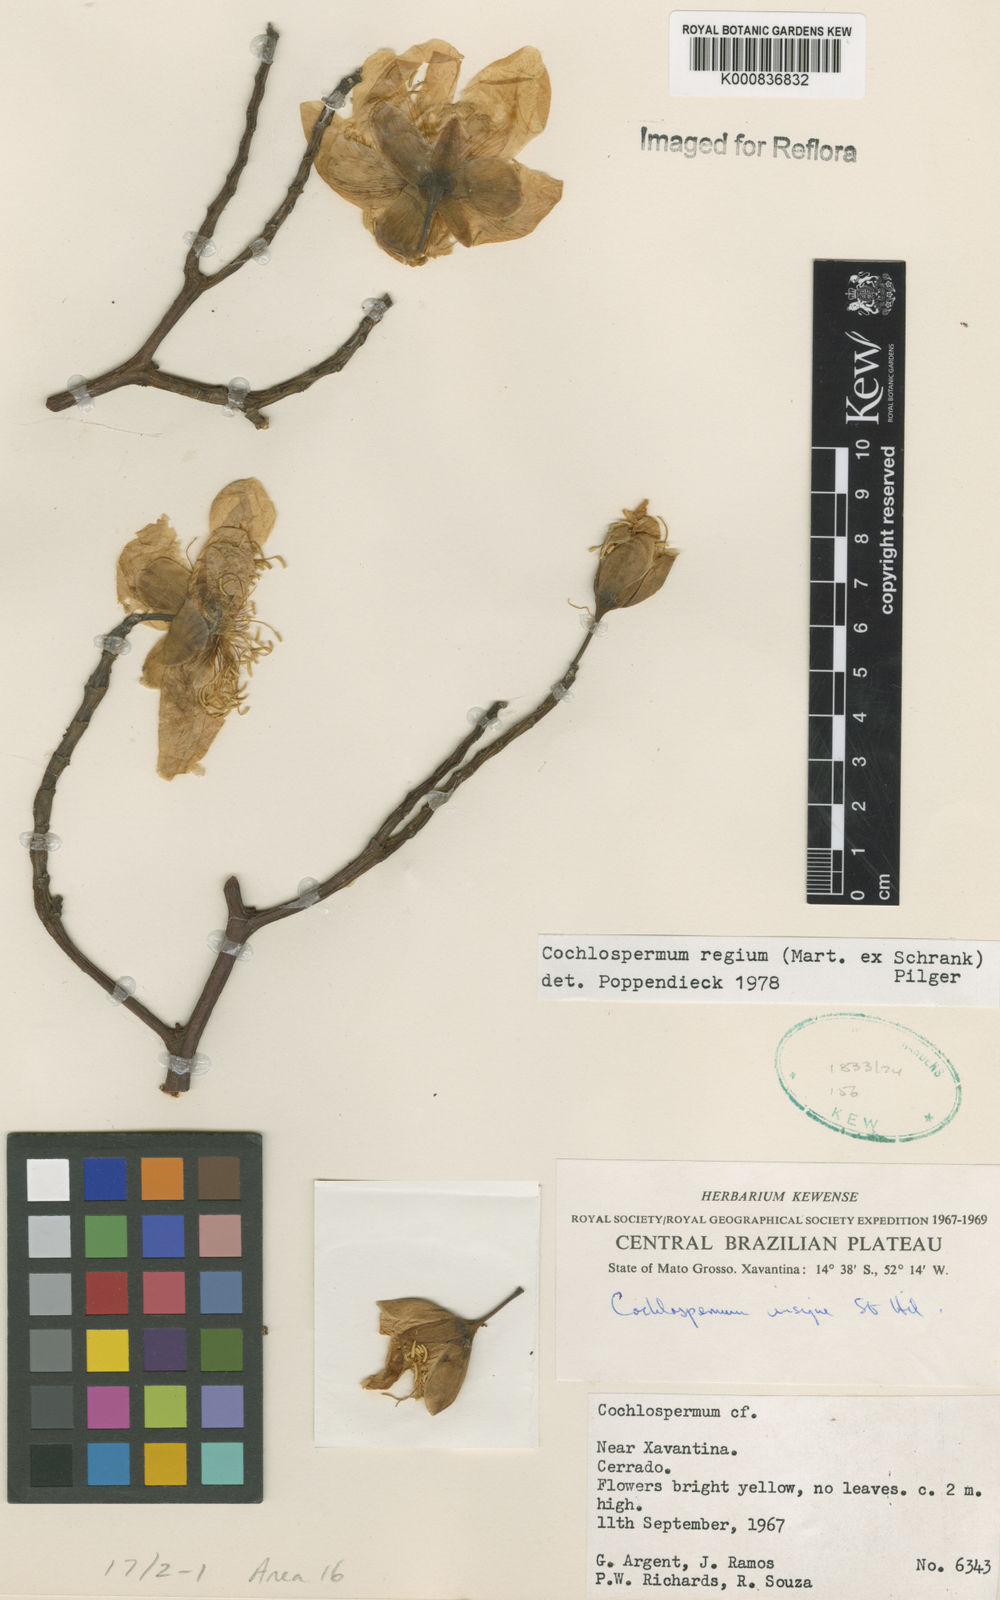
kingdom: Plantae
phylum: Tracheophyta
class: Magnoliopsida
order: Malvales
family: Cochlospermaceae
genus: Cochlospermum
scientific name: Cochlospermum regium
